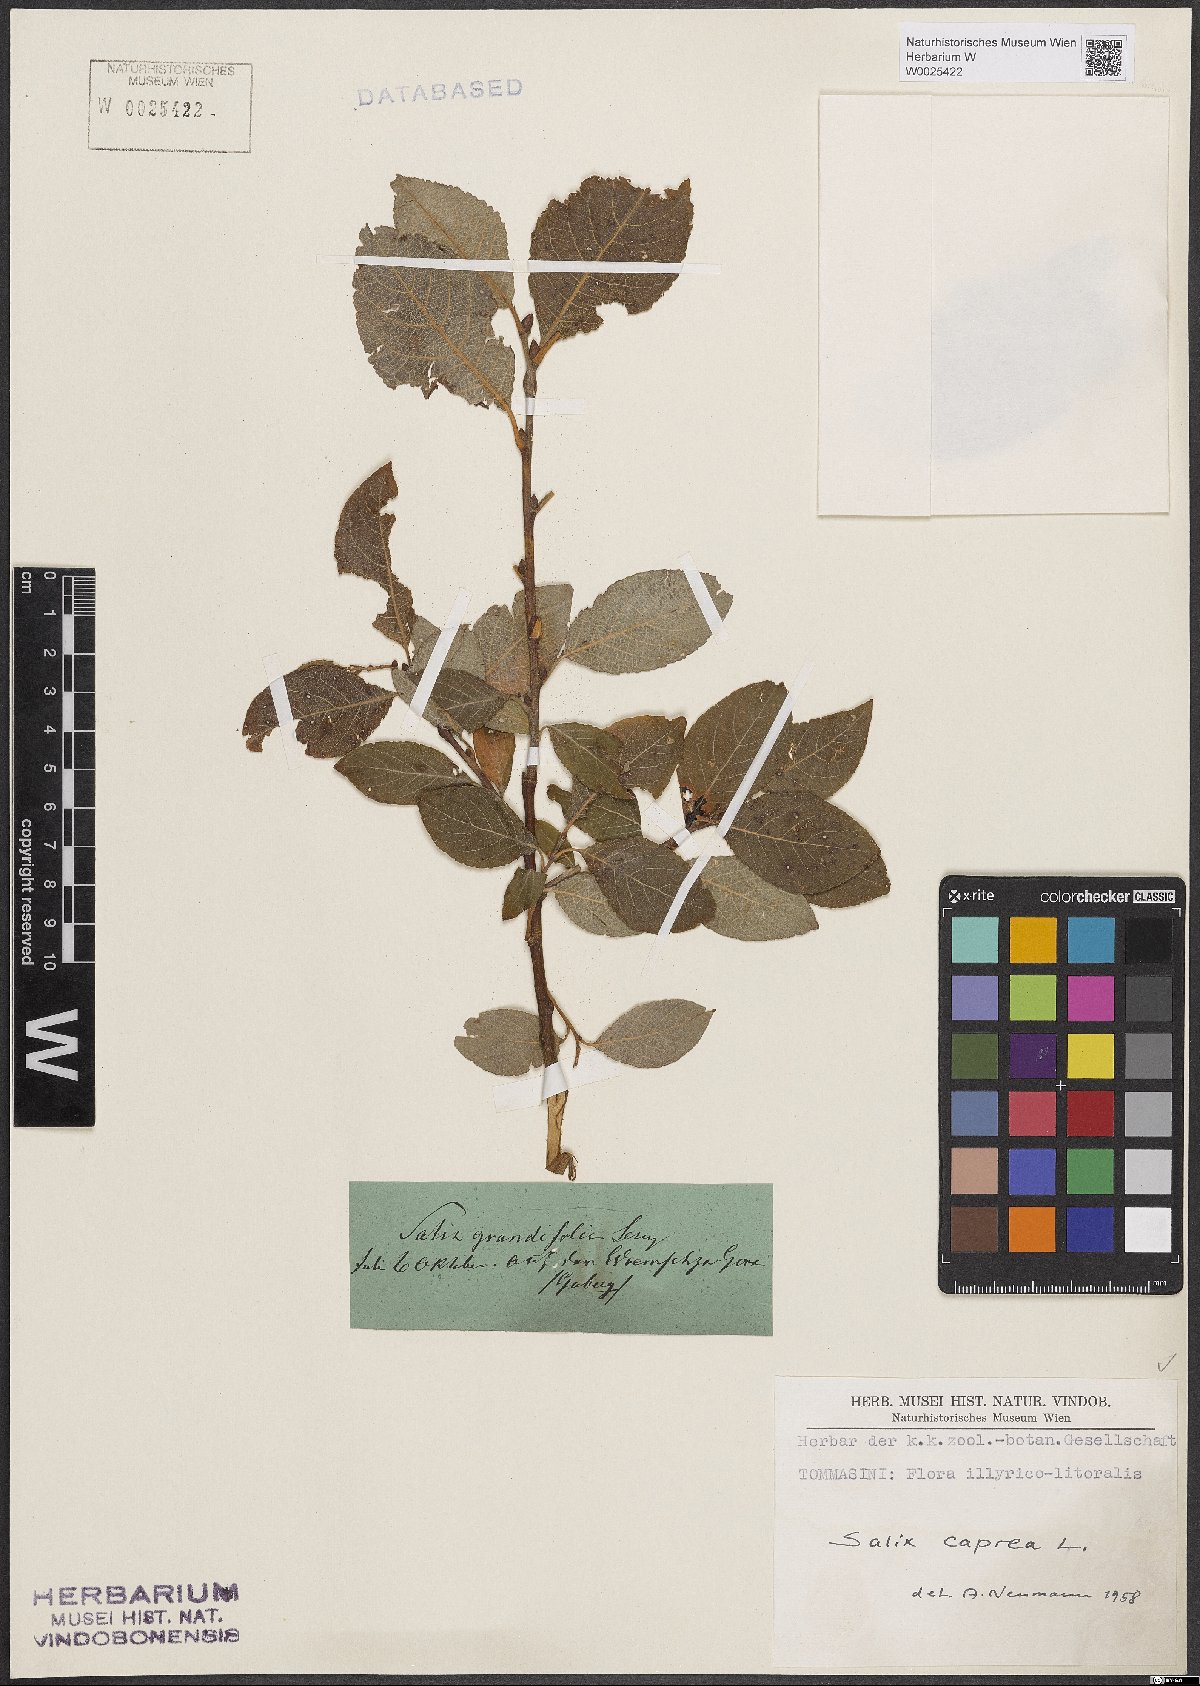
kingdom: Plantae
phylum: Tracheophyta
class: Magnoliopsida
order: Malpighiales
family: Salicaceae
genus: Salix
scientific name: Salix caprea
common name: Goat willow
